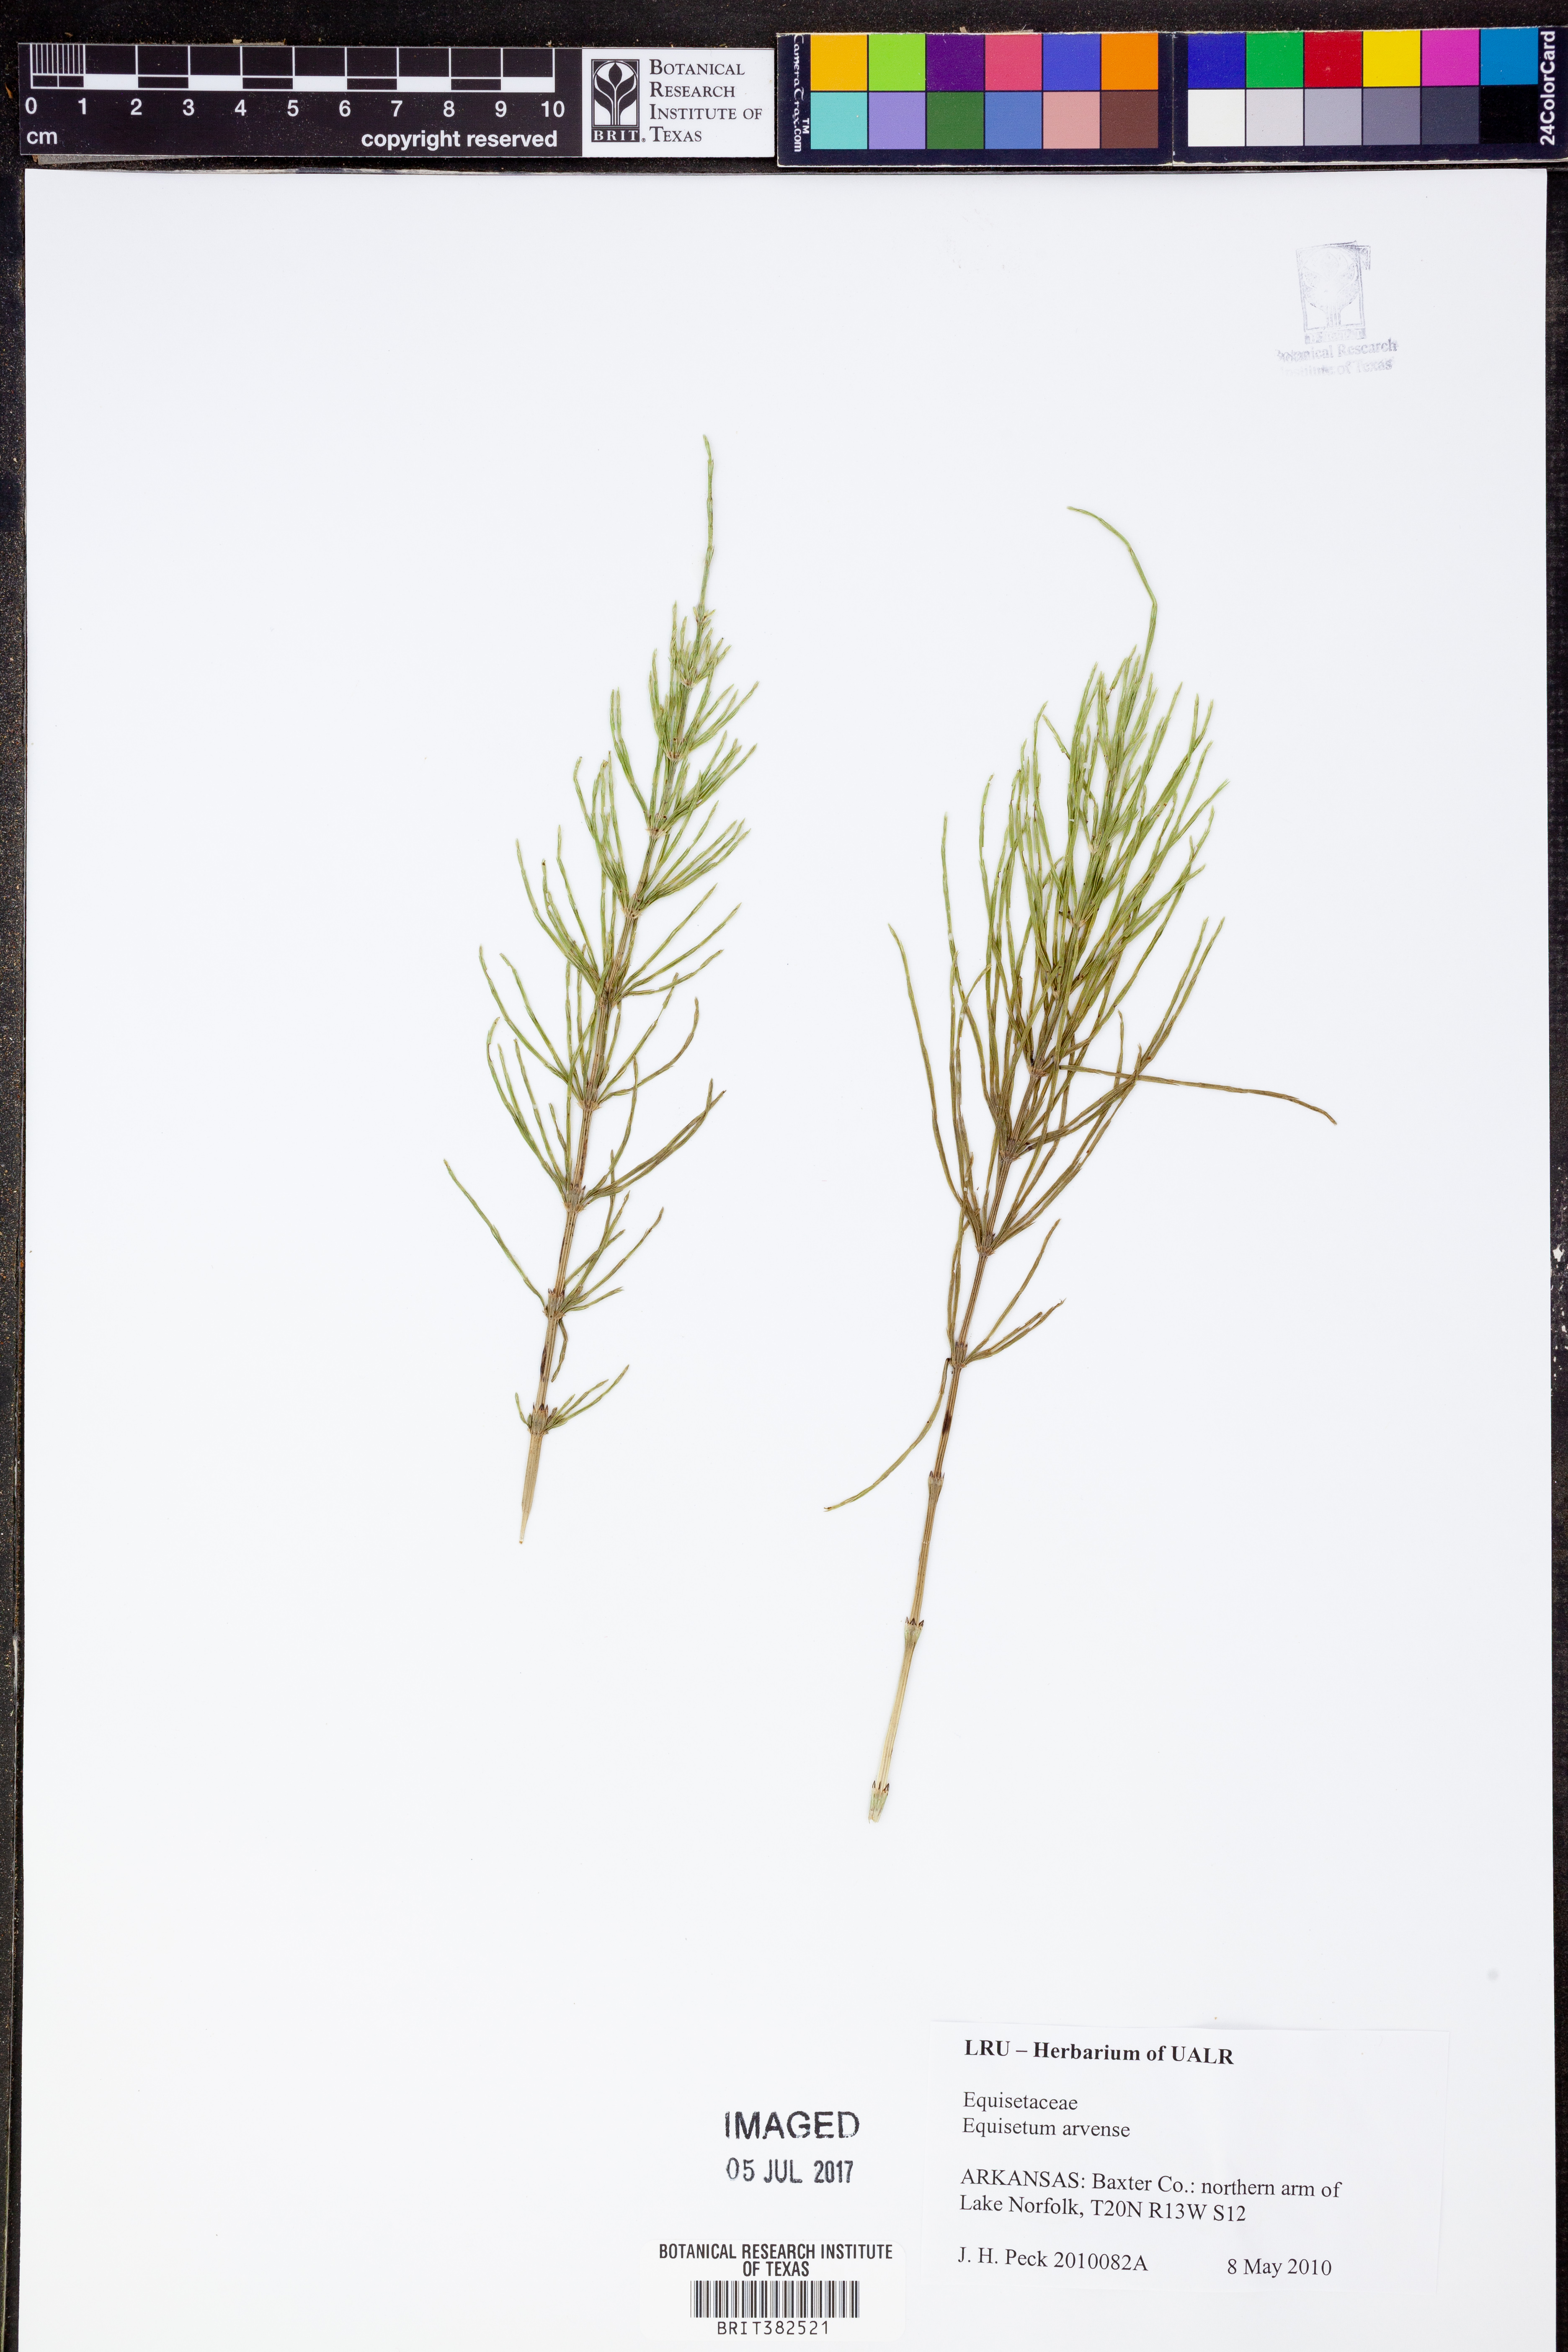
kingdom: Plantae
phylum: Tracheophyta
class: Polypodiopsida
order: Equisetales
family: Equisetaceae
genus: Equisetum
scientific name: Equisetum arvense
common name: Field horsetail
